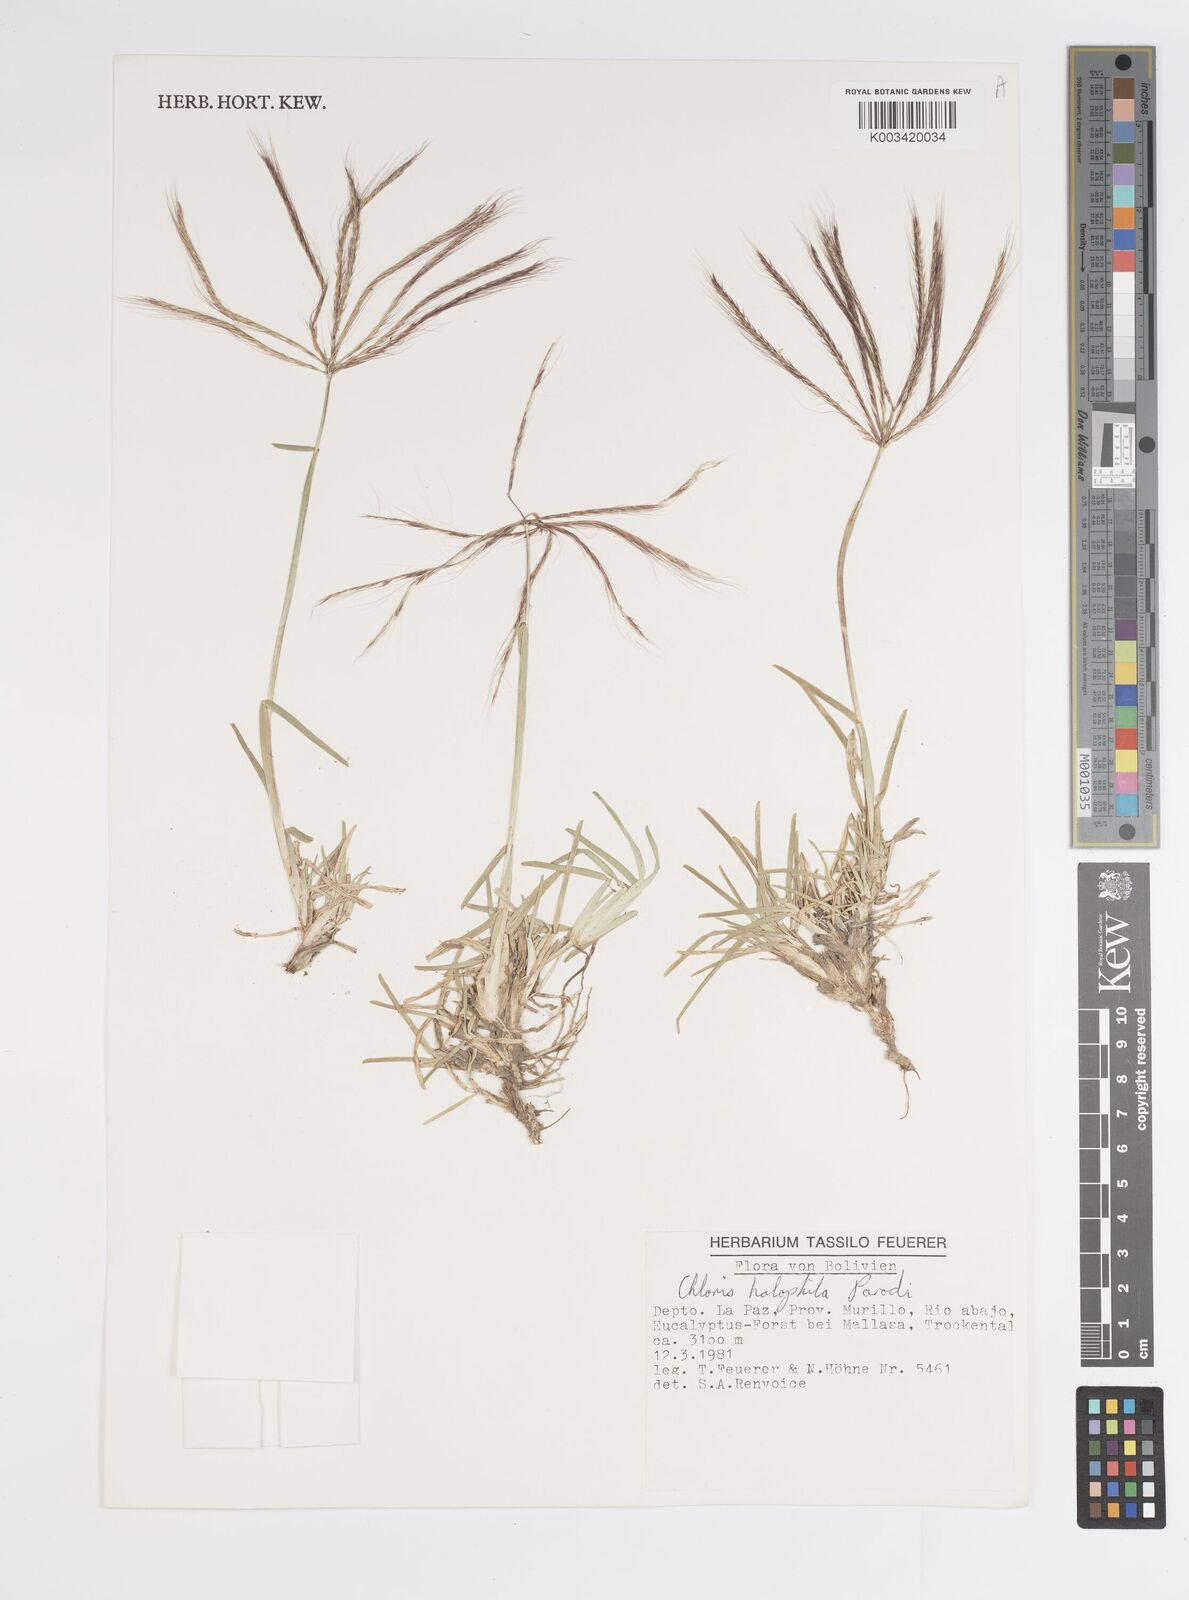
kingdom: Plantae
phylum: Tracheophyta
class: Liliopsida
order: Poales
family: Poaceae
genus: Chloris
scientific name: Chloris halophila
